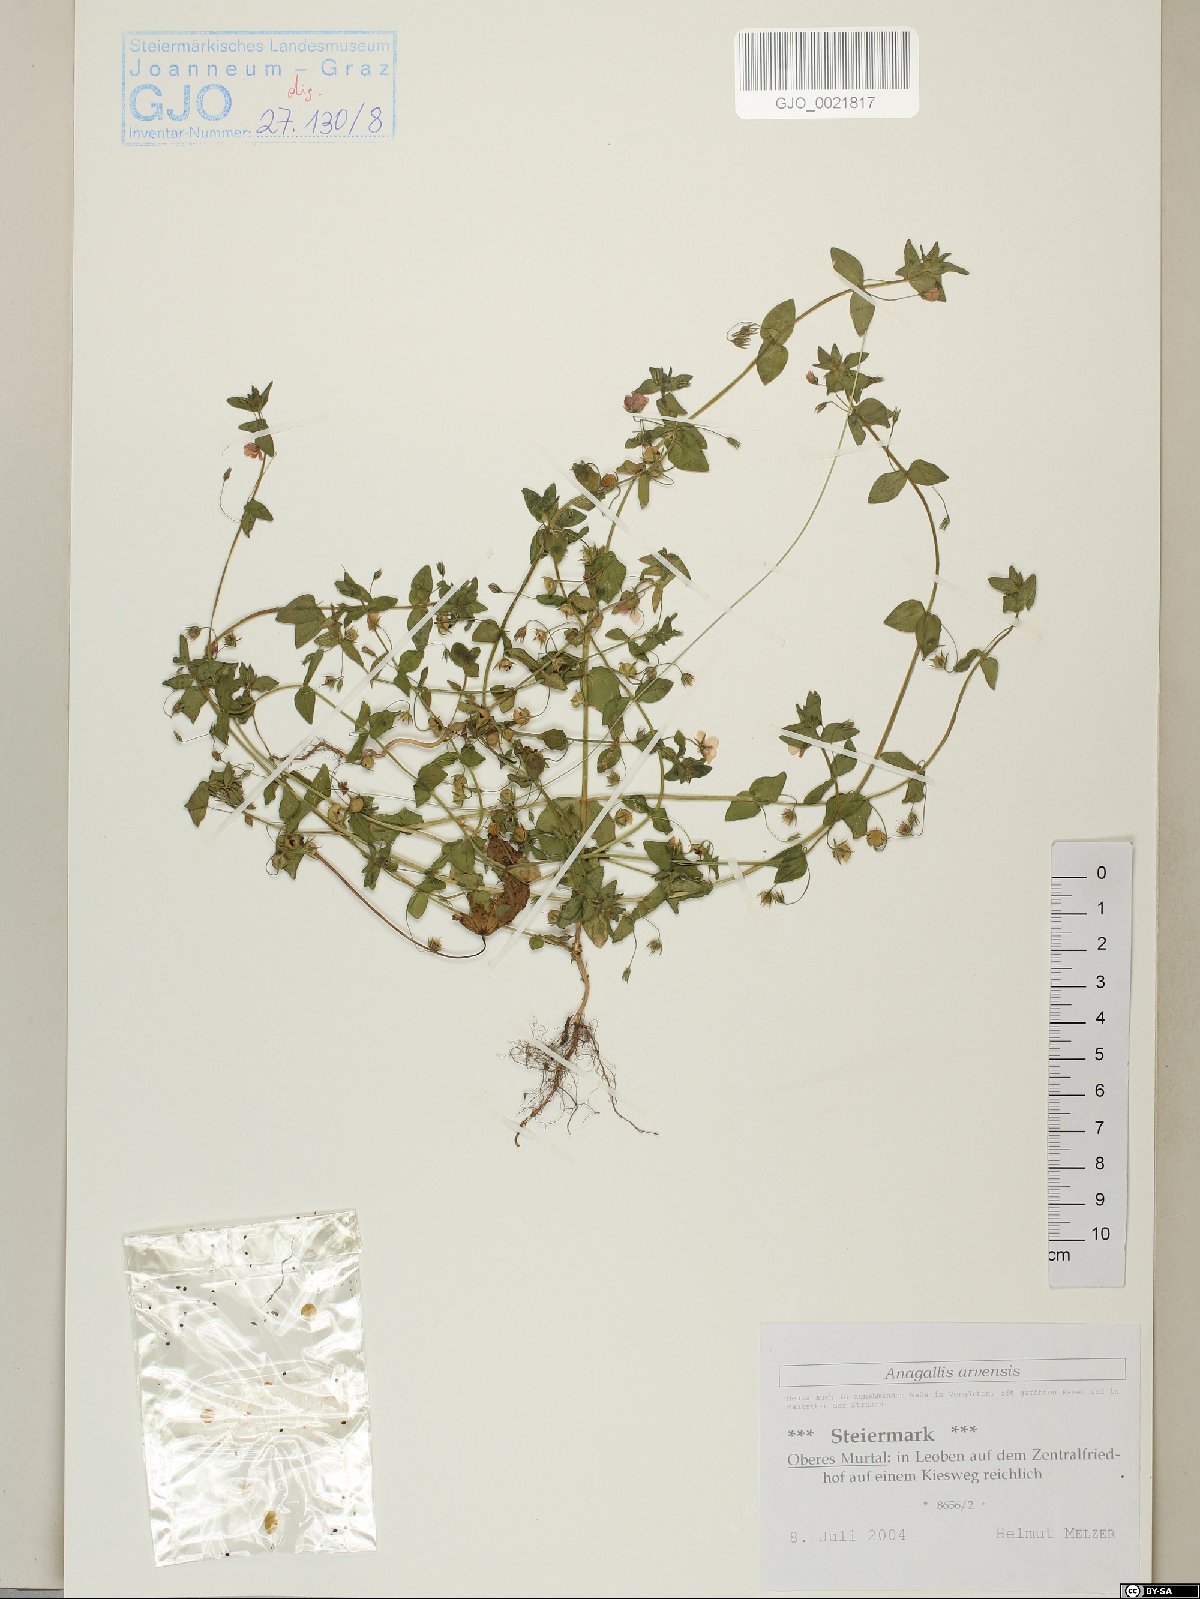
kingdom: Plantae
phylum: Tracheophyta
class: Magnoliopsida
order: Ericales
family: Primulaceae
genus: Lysimachia
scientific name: Lysimachia arvensis
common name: Scarlet pimpernel
